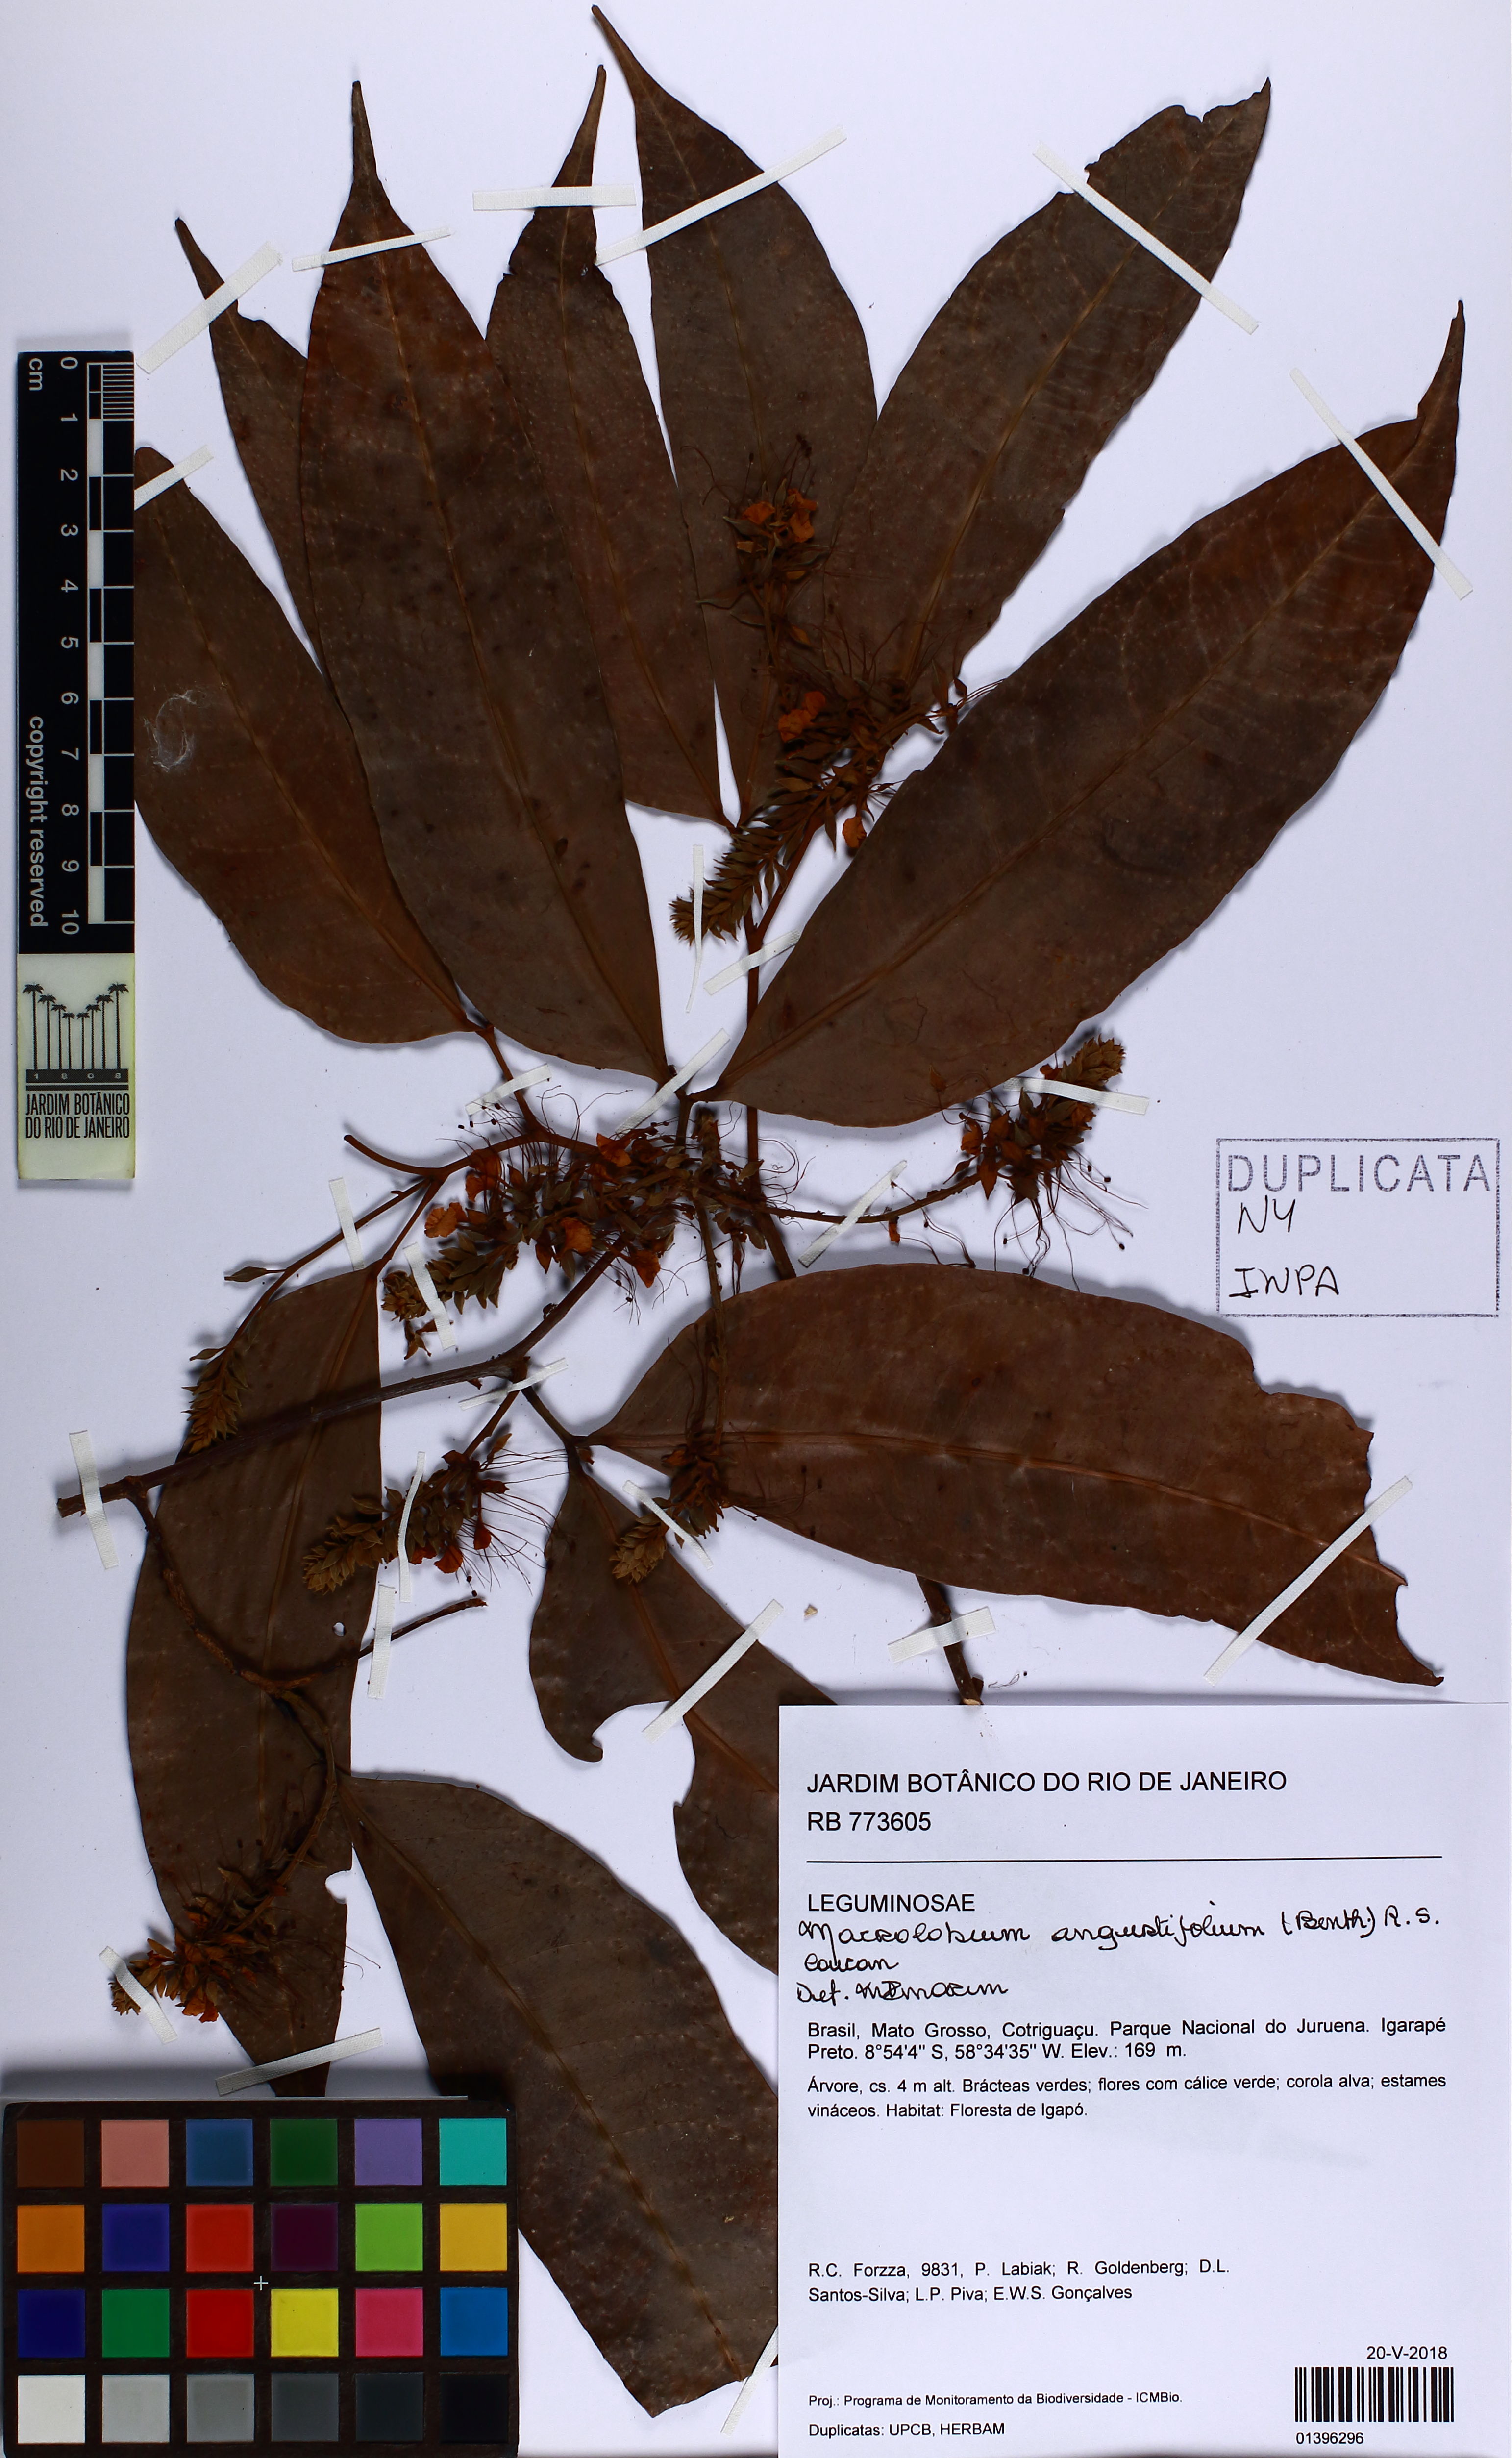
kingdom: Plantae
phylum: Tracheophyta
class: Magnoliopsida
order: Fabales
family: Fabaceae
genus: Macrolobium
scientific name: Macrolobium angustifolium
